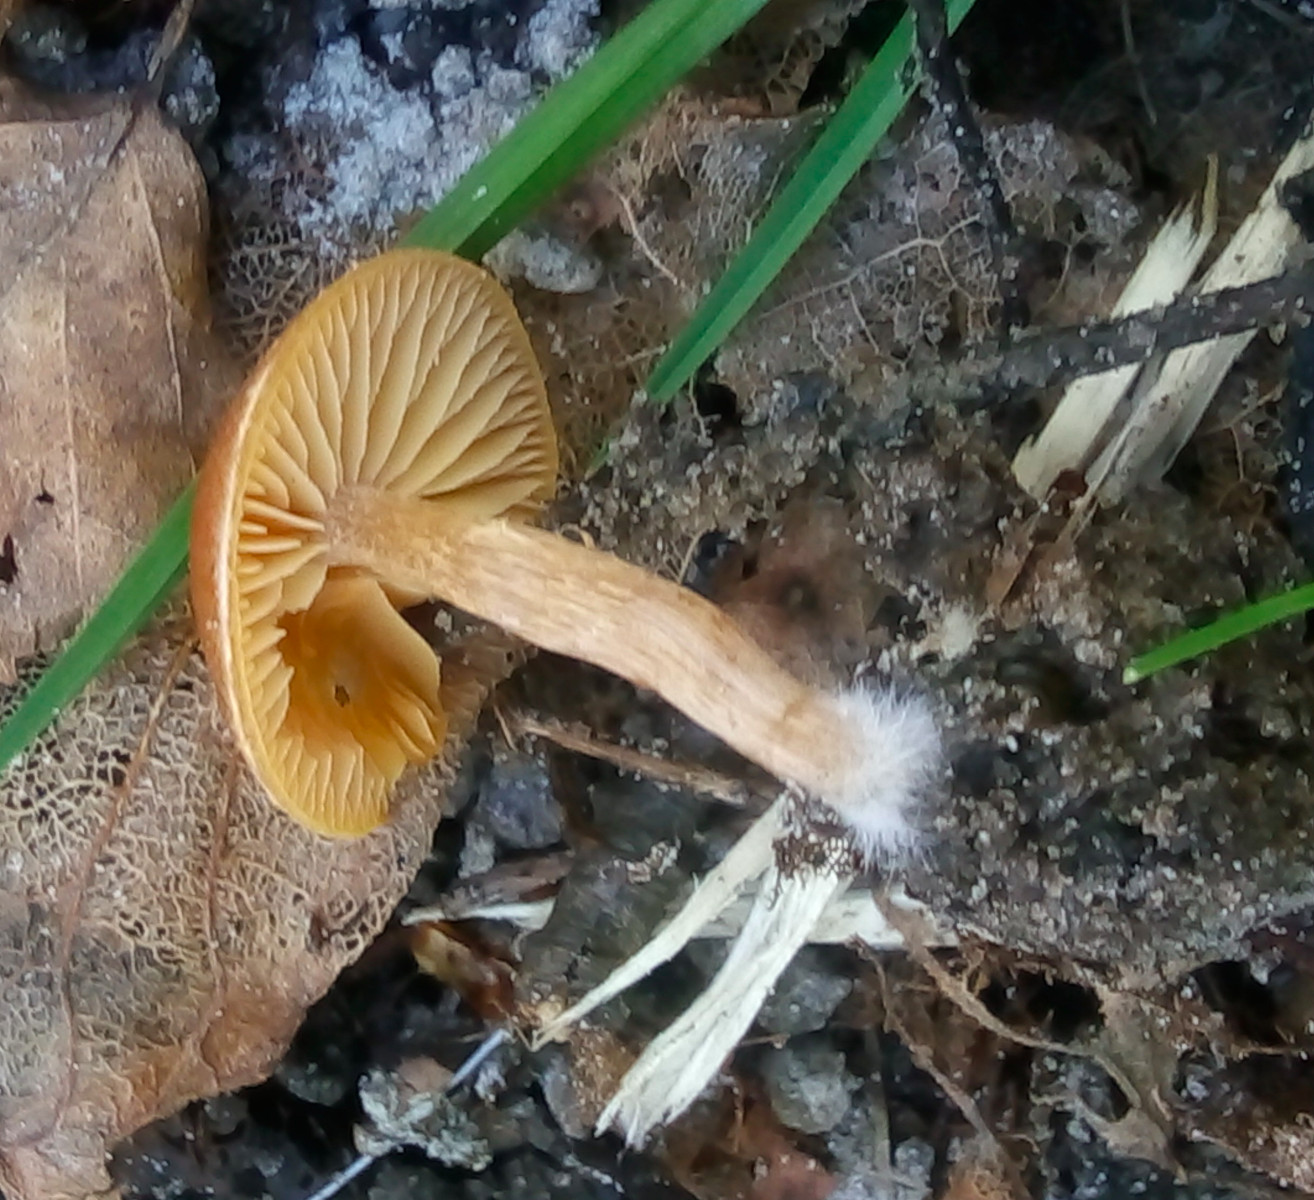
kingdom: Fungi
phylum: Basidiomycota
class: Agaricomycetes
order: Agaricales
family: Tubariaceae
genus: Tubaria
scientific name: Tubaria furfuracea
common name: kliddet fnughat
